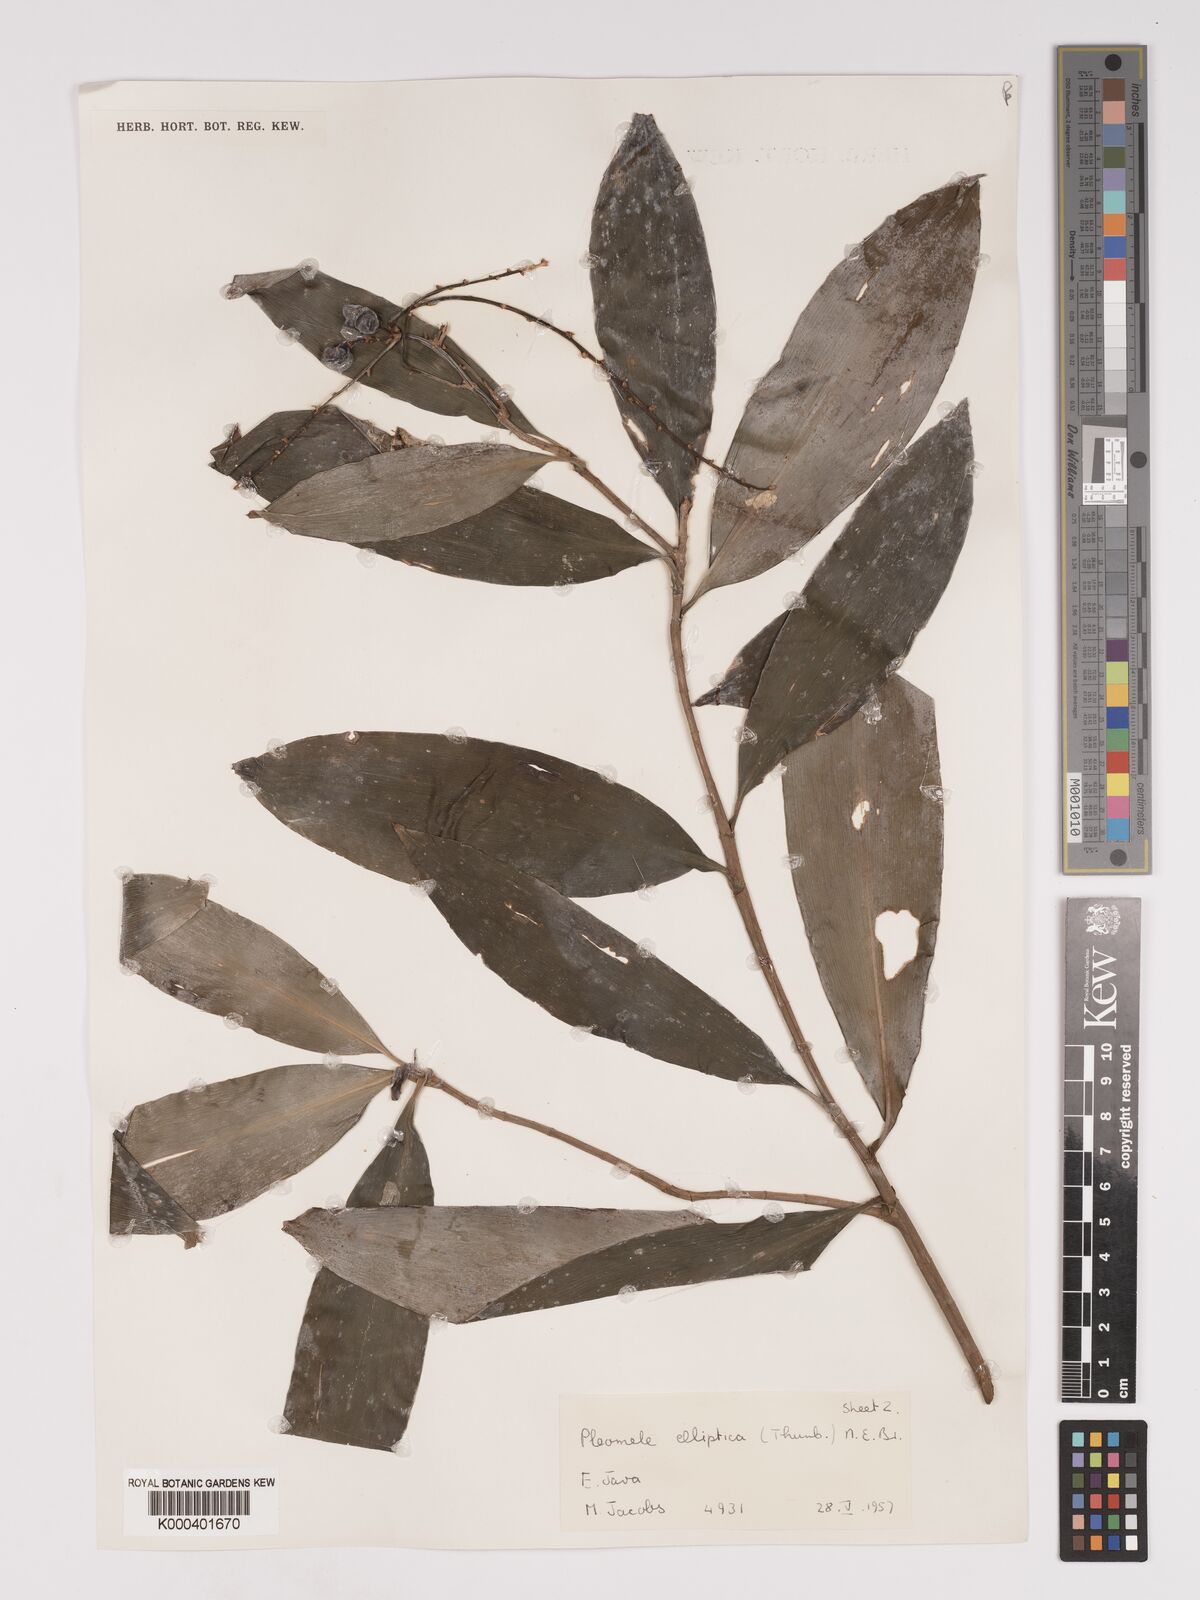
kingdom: Plantae
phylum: Tracheophyta
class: Liliopsida
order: Asparagales
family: Asparagaceae
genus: Dracaena
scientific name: Dracaena elliptica
